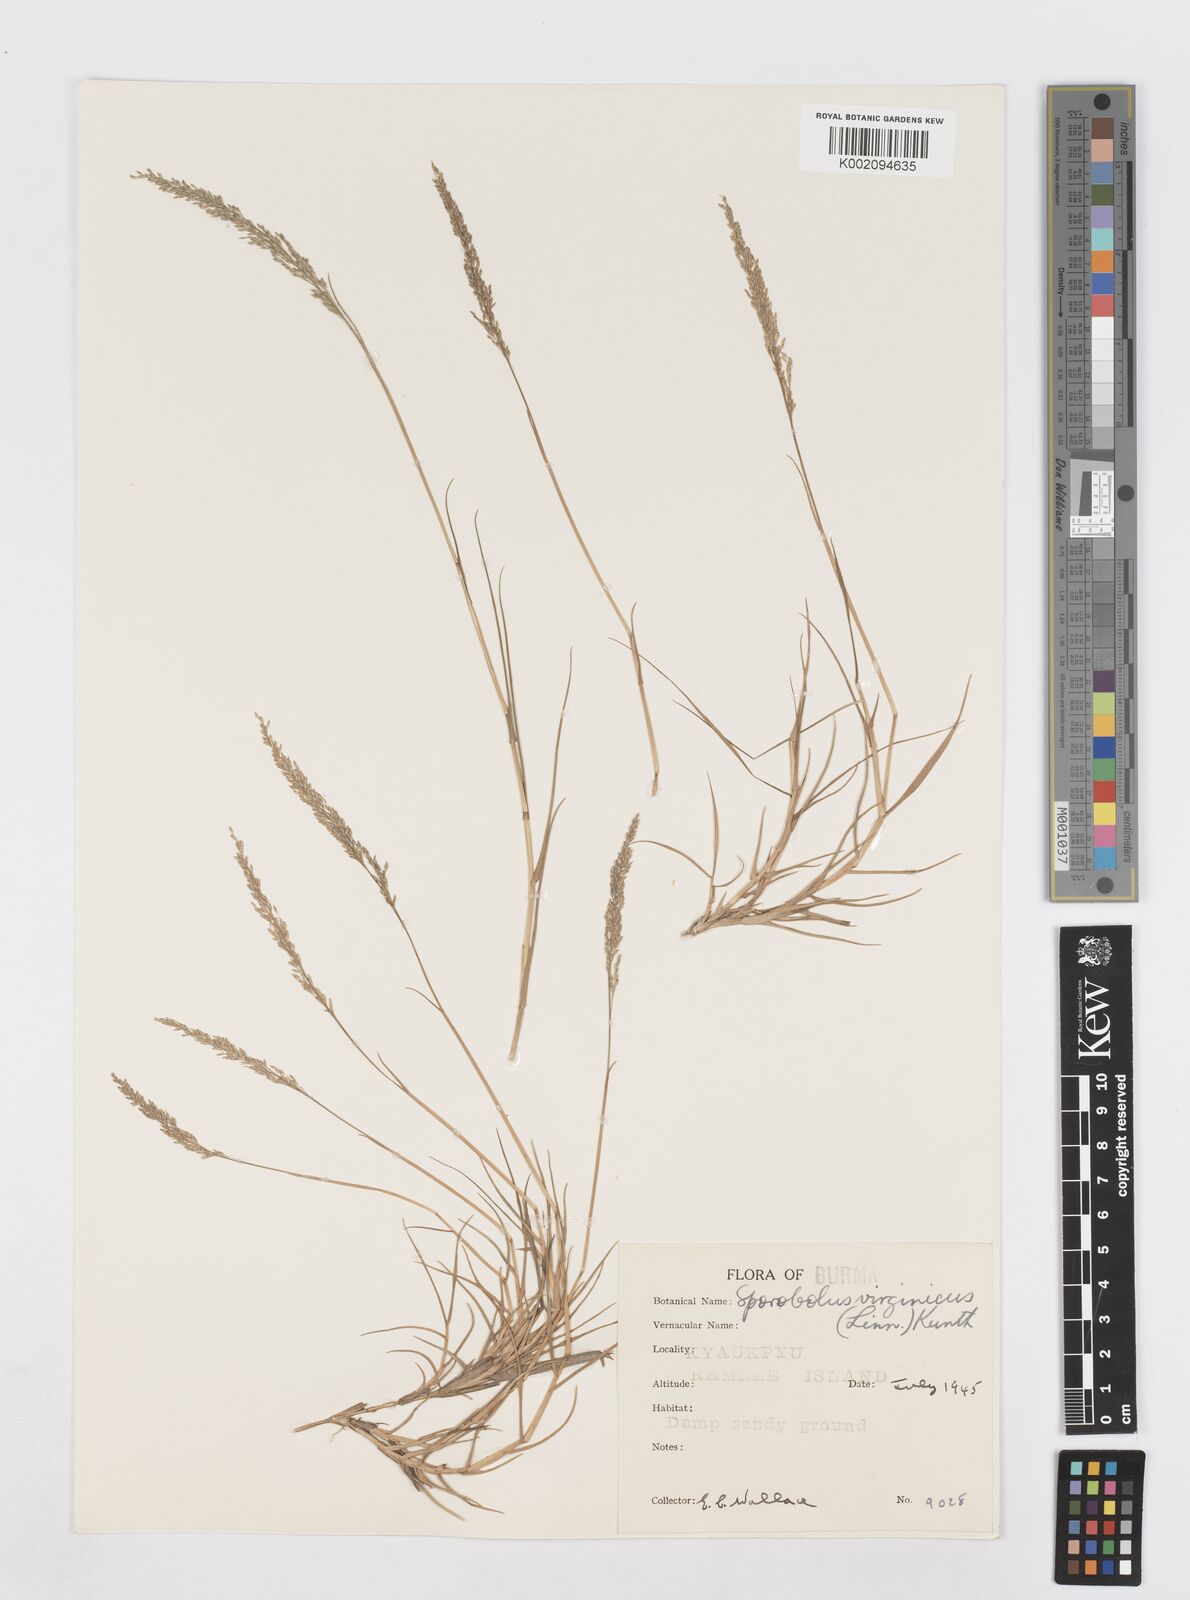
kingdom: Plantae
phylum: Tracheophyta
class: Liliopsida
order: Poales
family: Poaceae
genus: Sporobolus
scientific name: Sporobolus virginicus
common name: Beach dropseed
